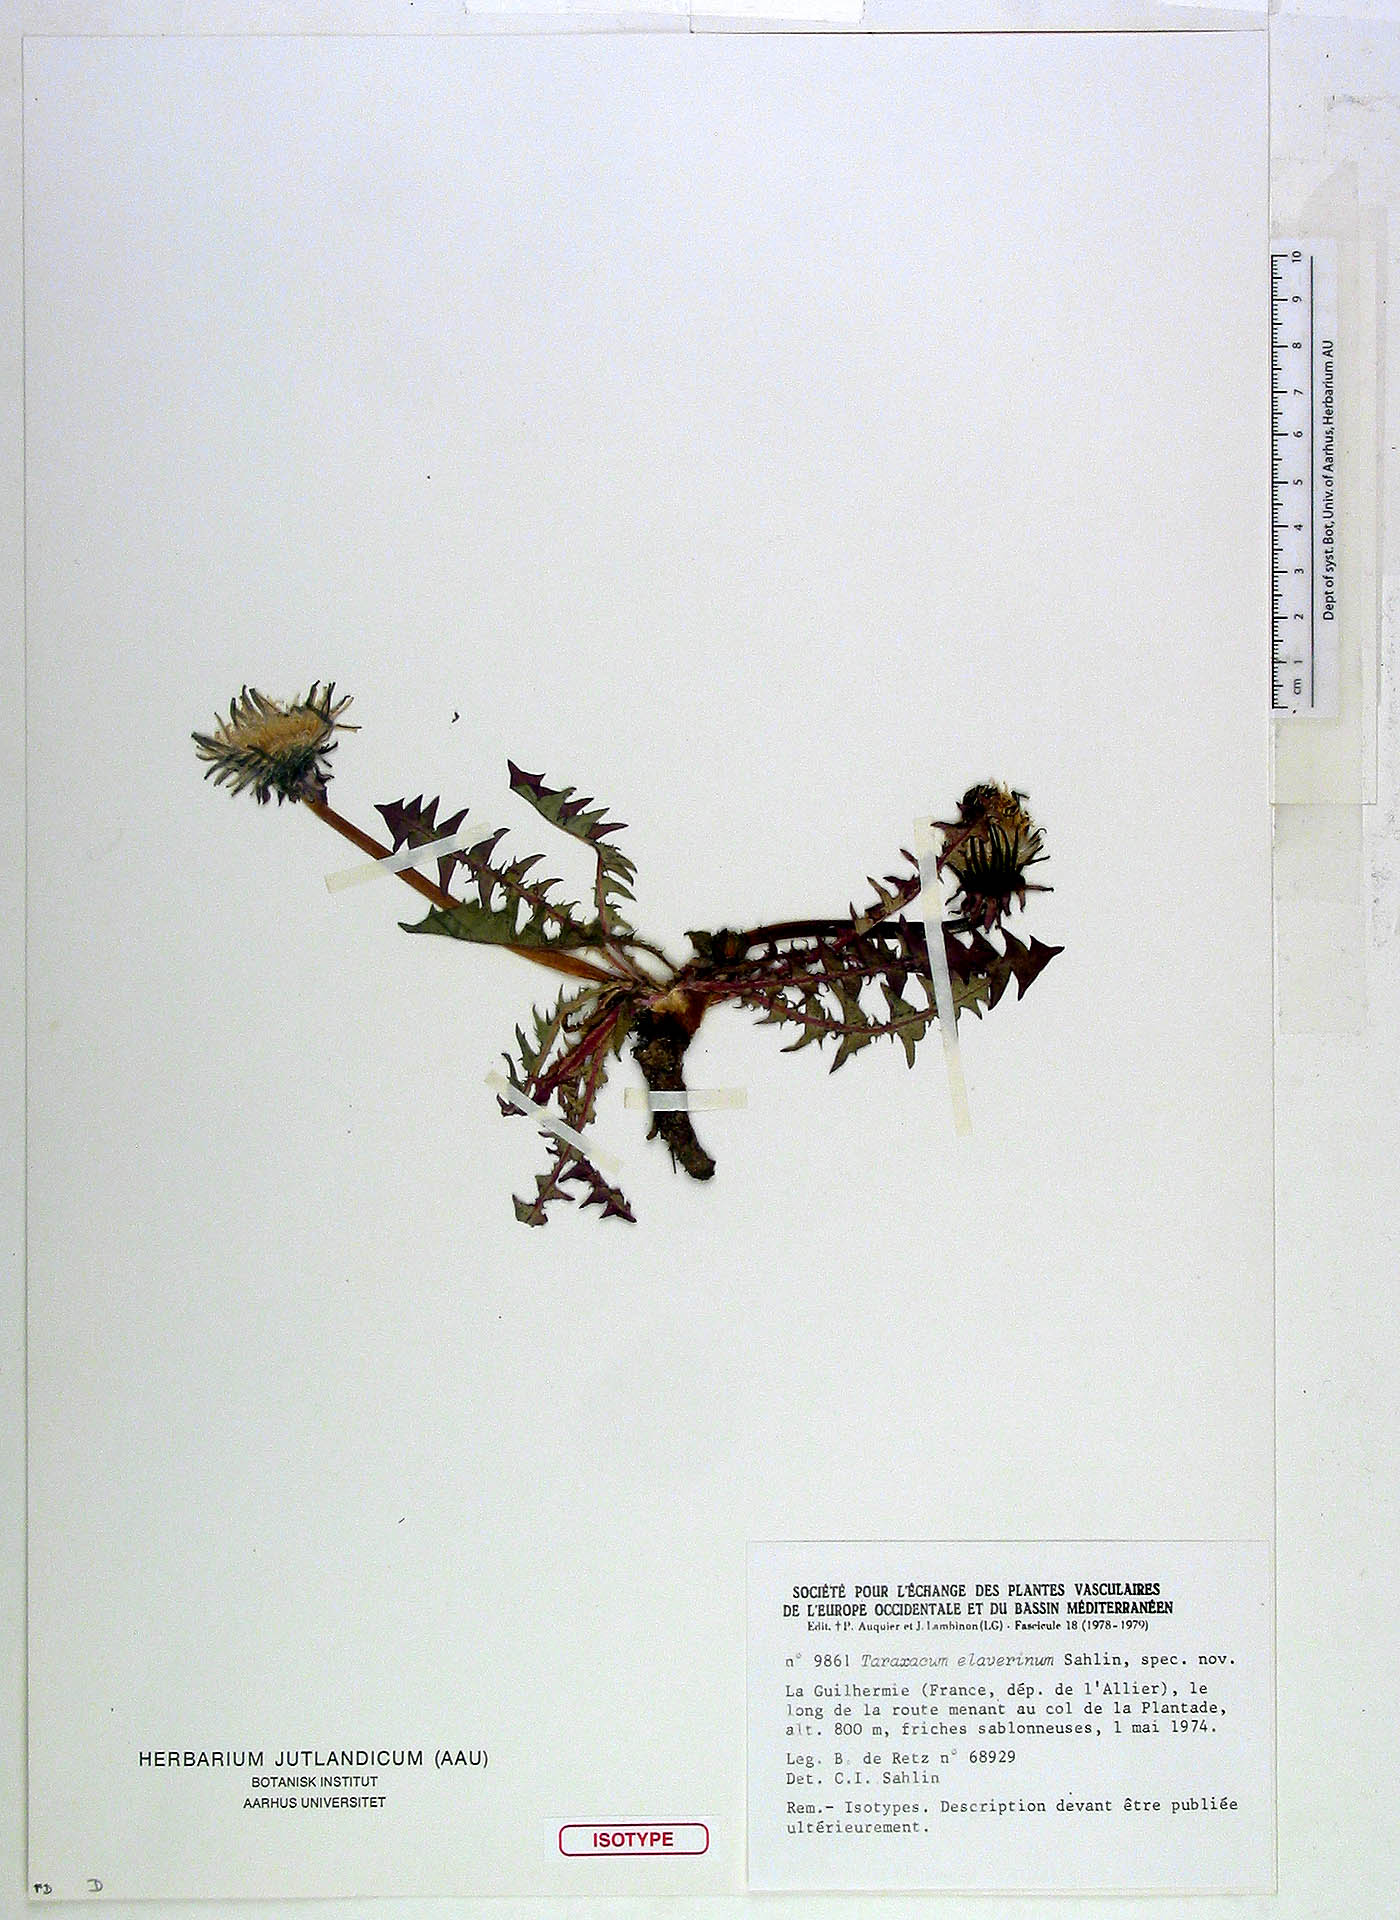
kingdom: Plantae
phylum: Tracheophyta
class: Magnoliopsida
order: Asterales
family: Asteraceae
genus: Taraxacum
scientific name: Taraxacum elaverinum
